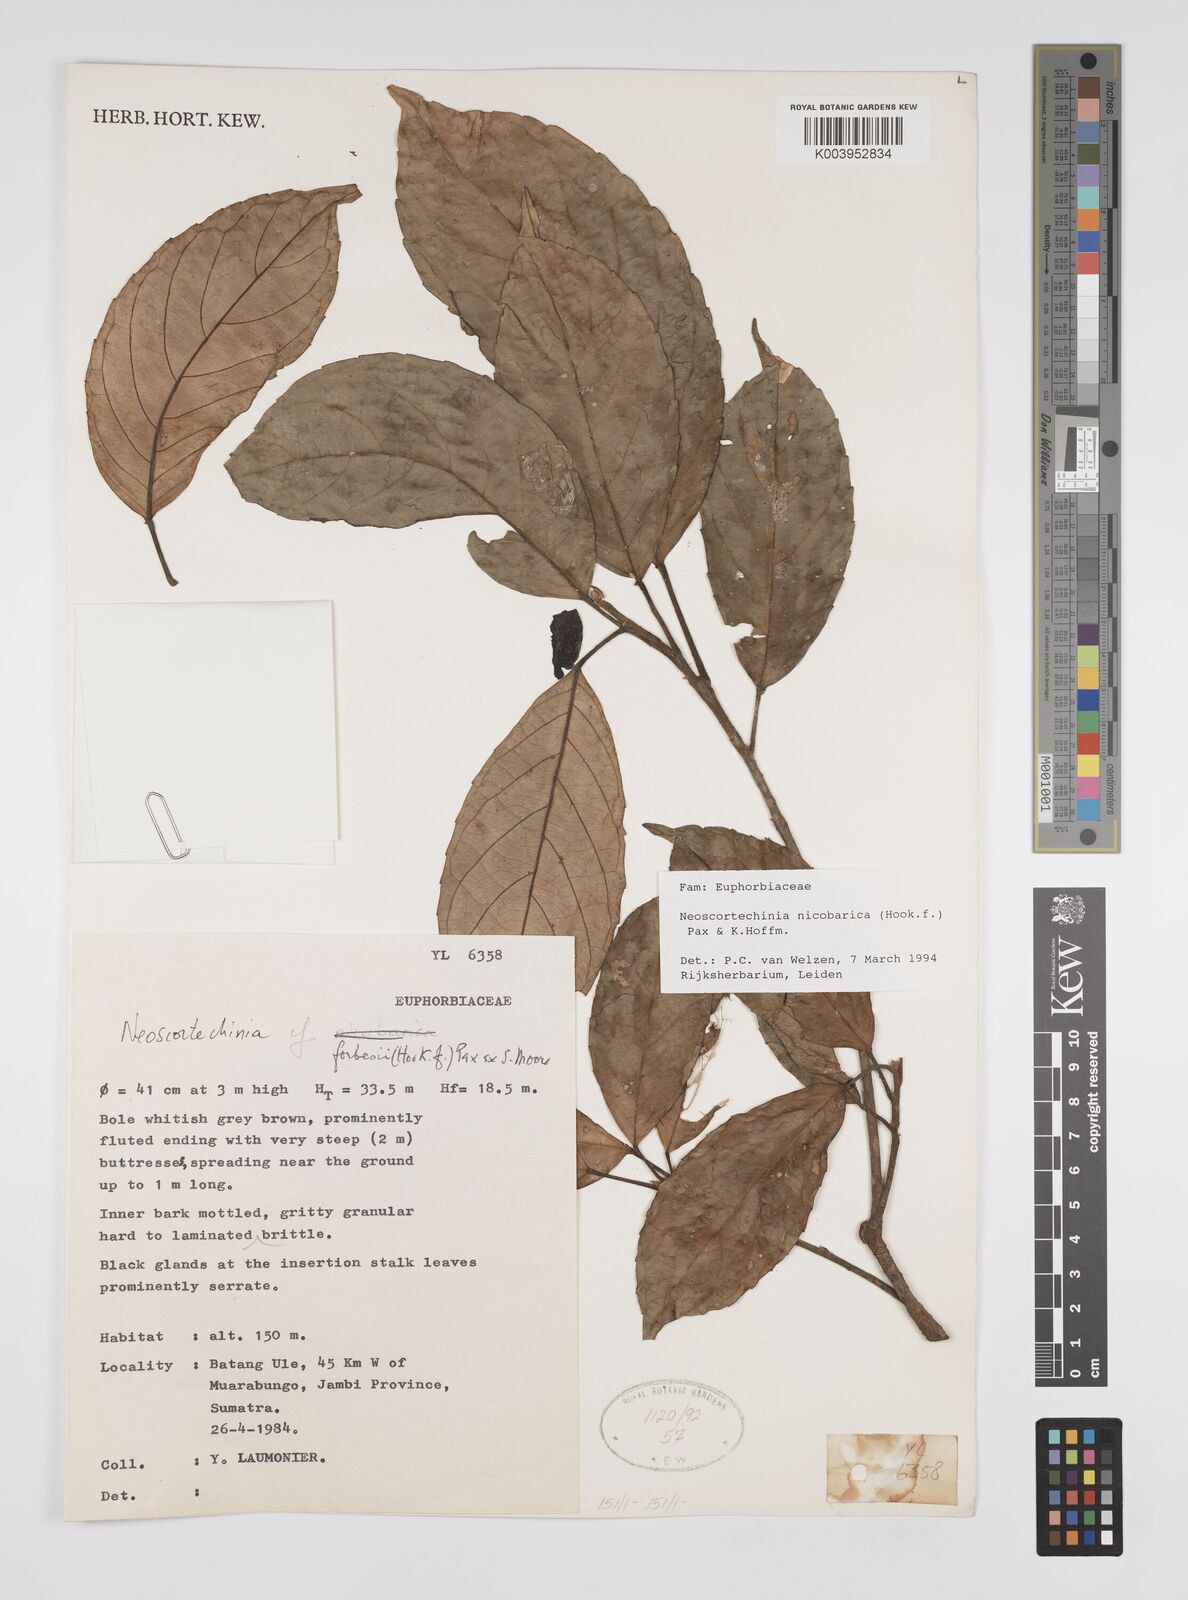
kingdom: Plantae
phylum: Tracheophyta
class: Magnoliopsida
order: Malpighiales
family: Euphorbiaceae
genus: Neoscortechinia
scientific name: Neoscortechinia nicobarica
